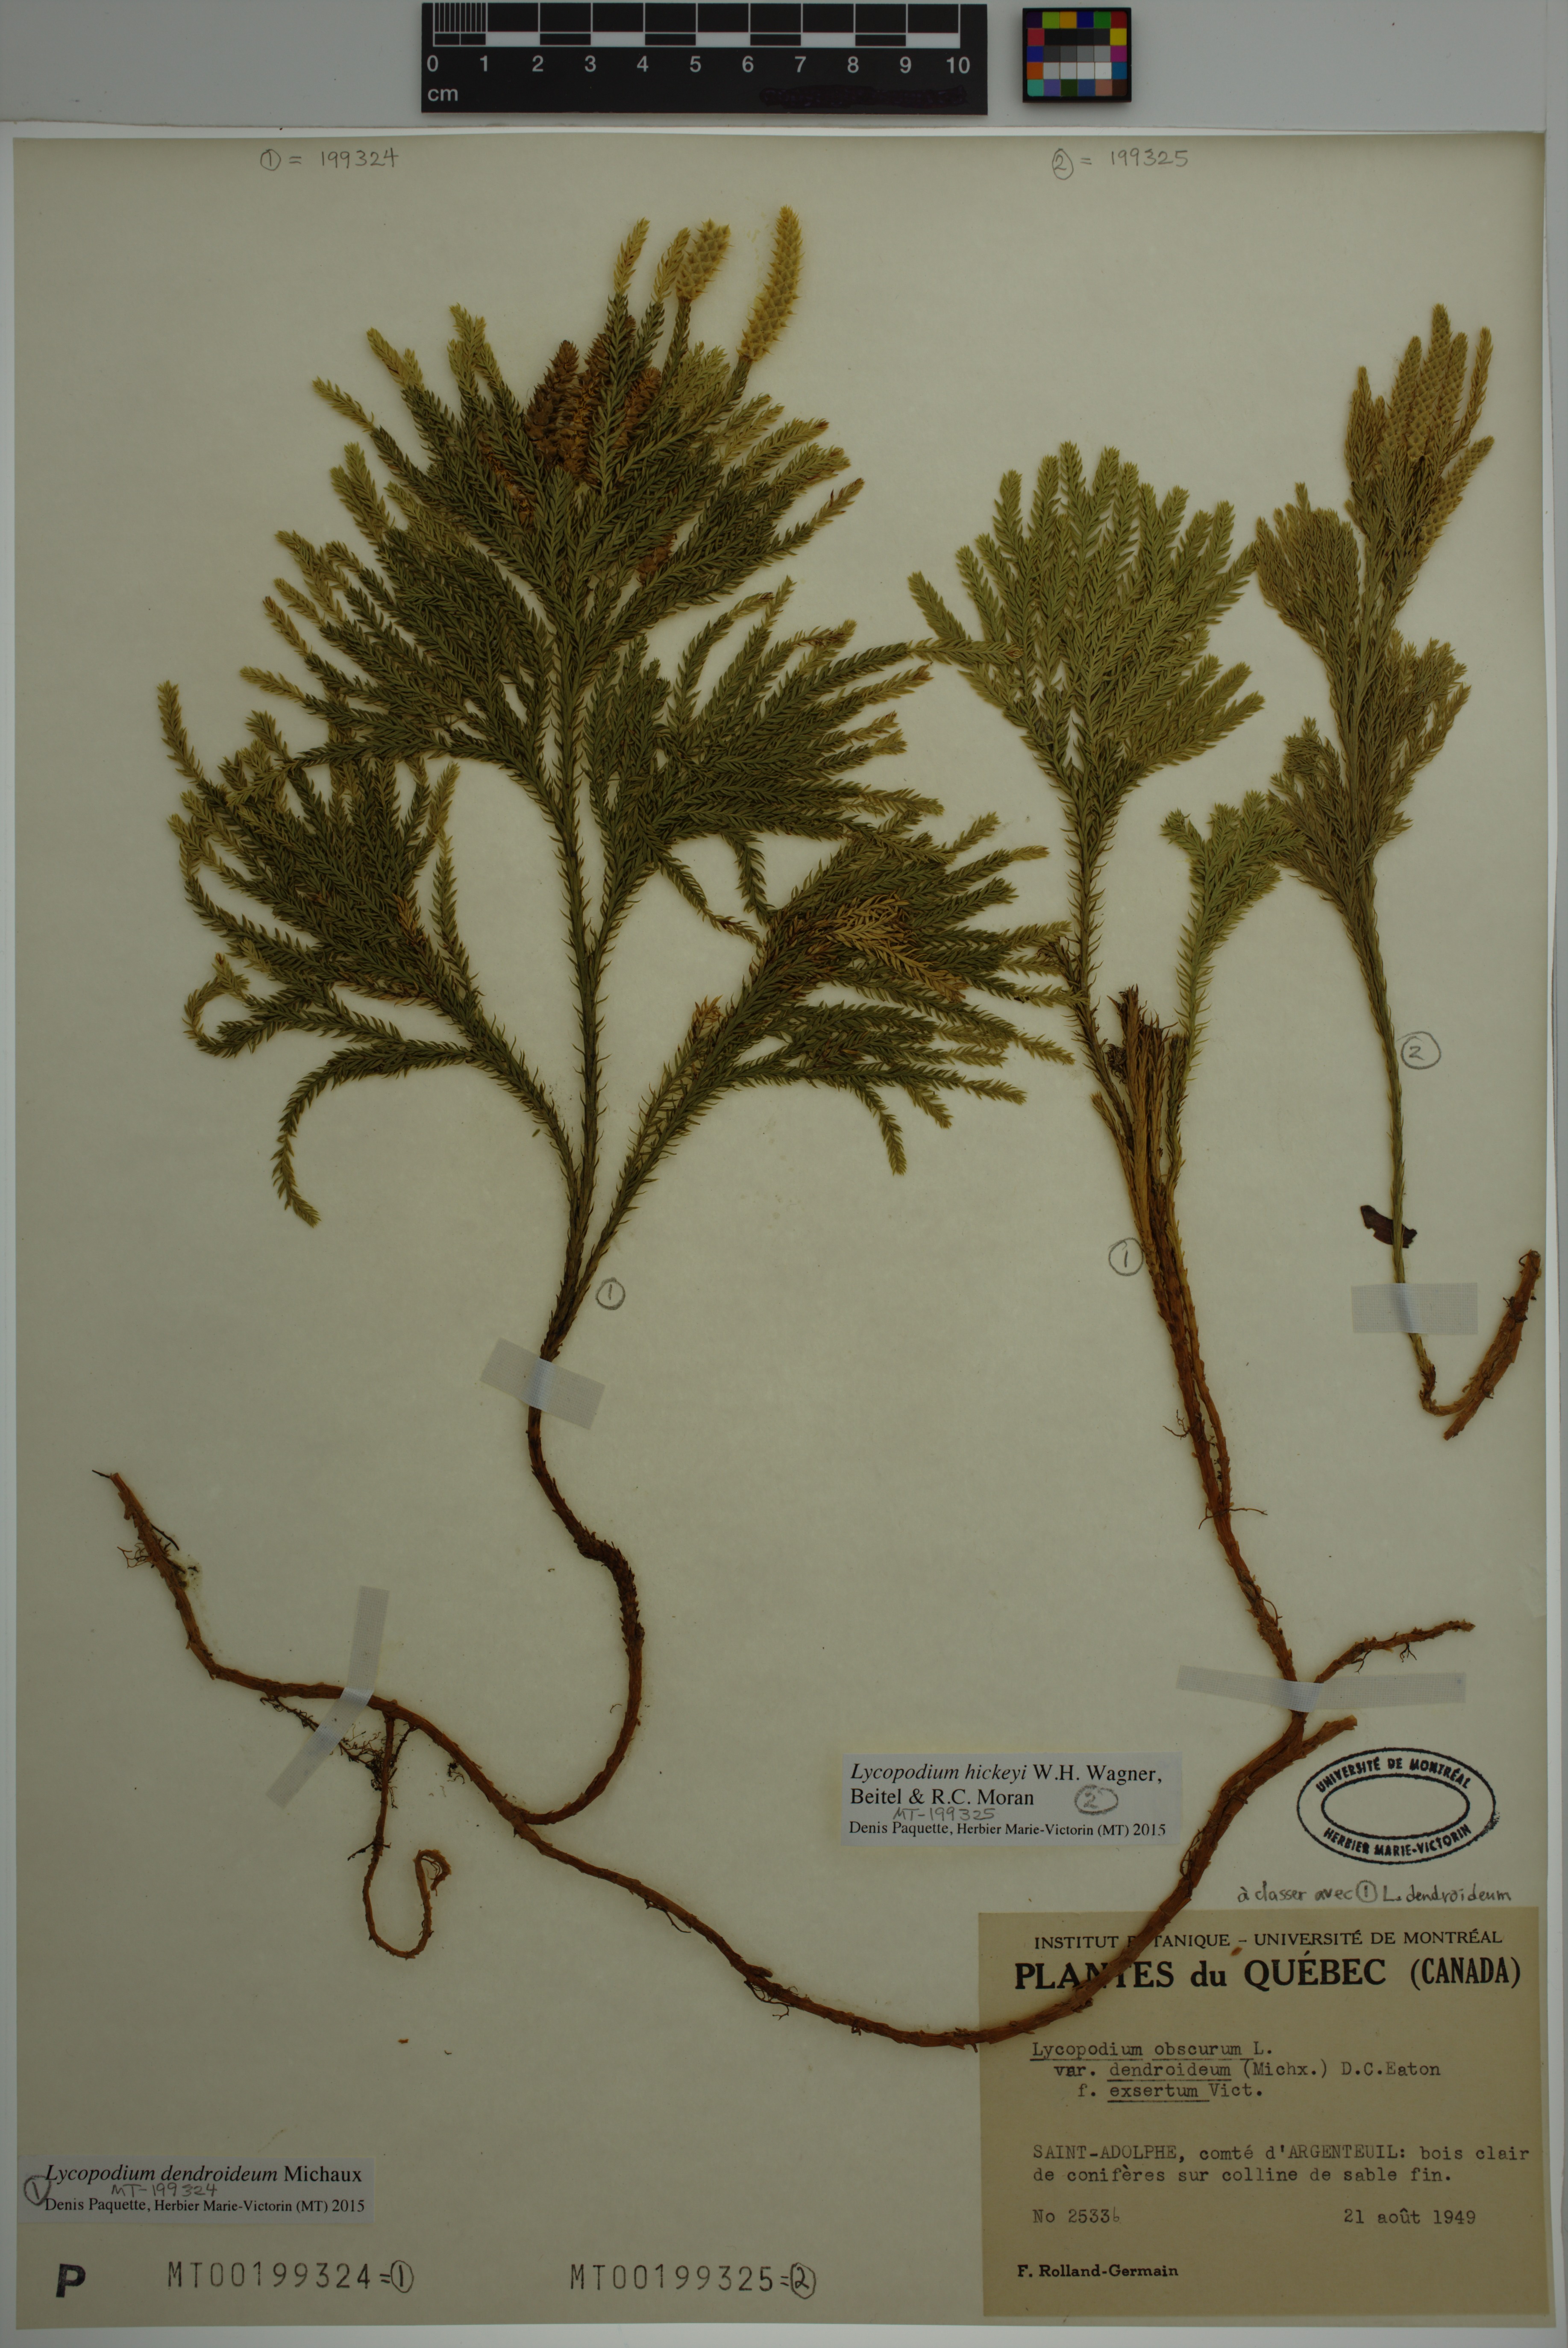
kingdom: Plantae
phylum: Tracheophyta
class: Lycopodiopsida
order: Lycopodiales
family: Lycopodiaceae
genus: Dendrolycopodium
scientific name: Dendrolycopodium dendroideum
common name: Northern tree-clubmoss
